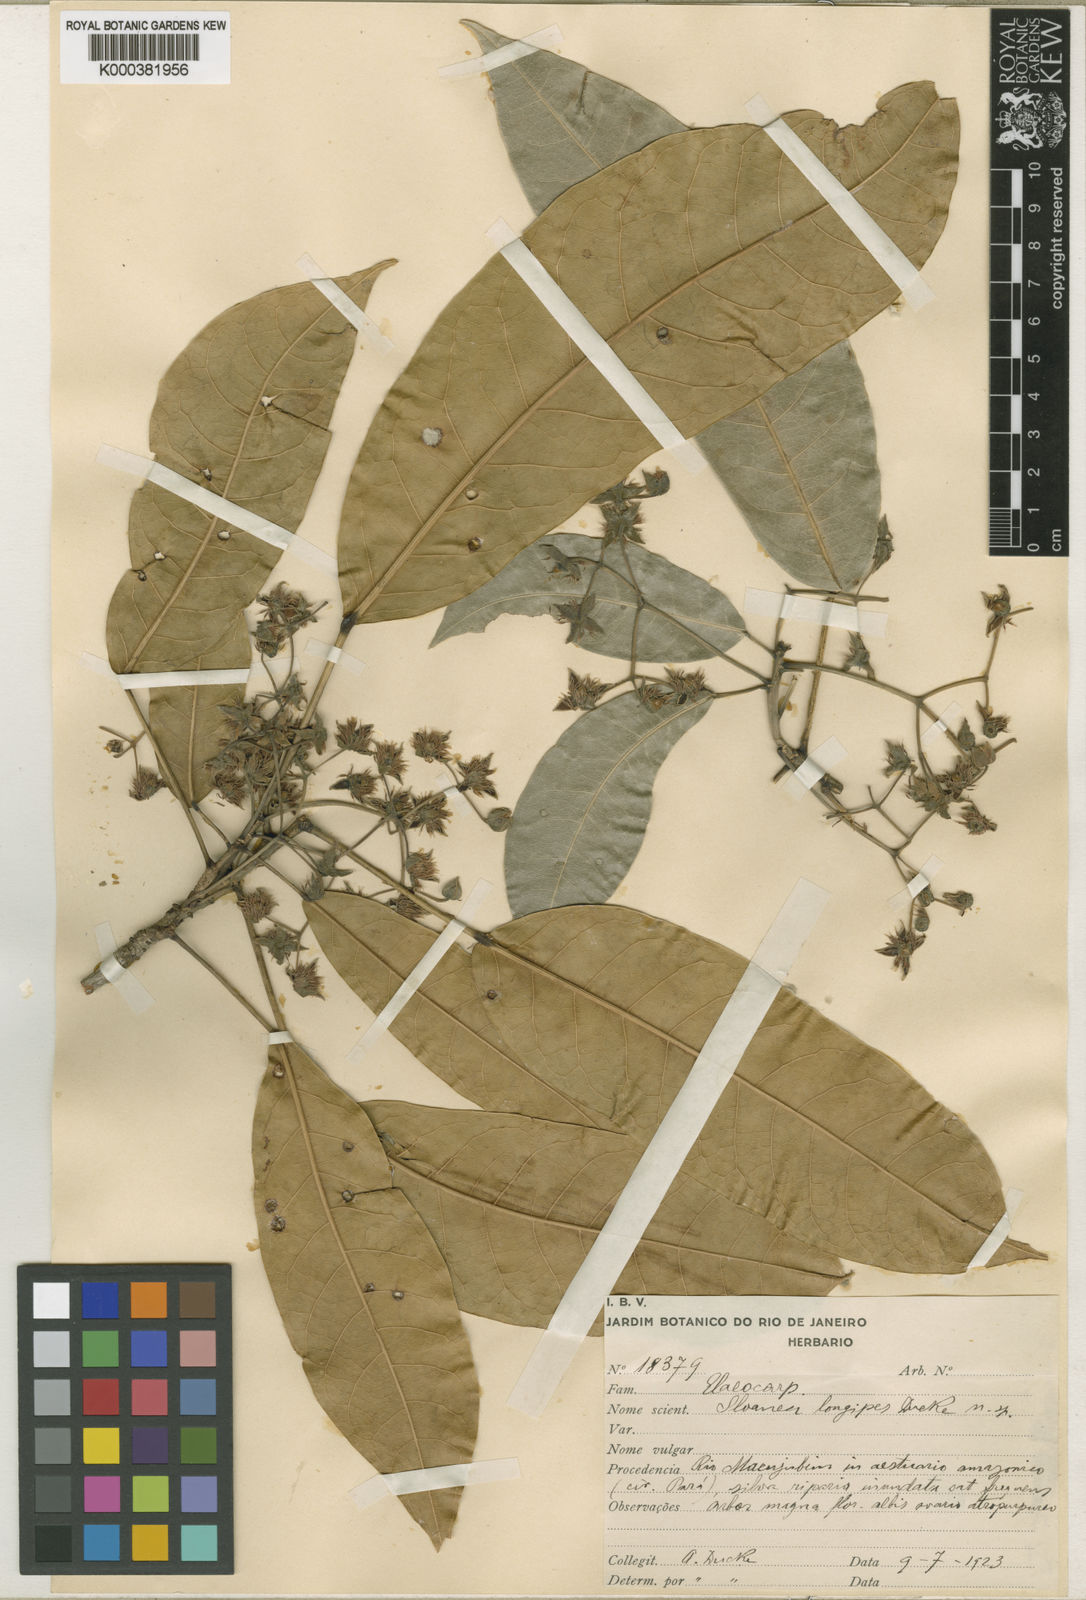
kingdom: Plantae
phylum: Tracheophyta
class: Magnoliopsida
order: Oxalidales
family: Elaeocarpaceae
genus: Sloanea
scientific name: Sloanea floribunda
